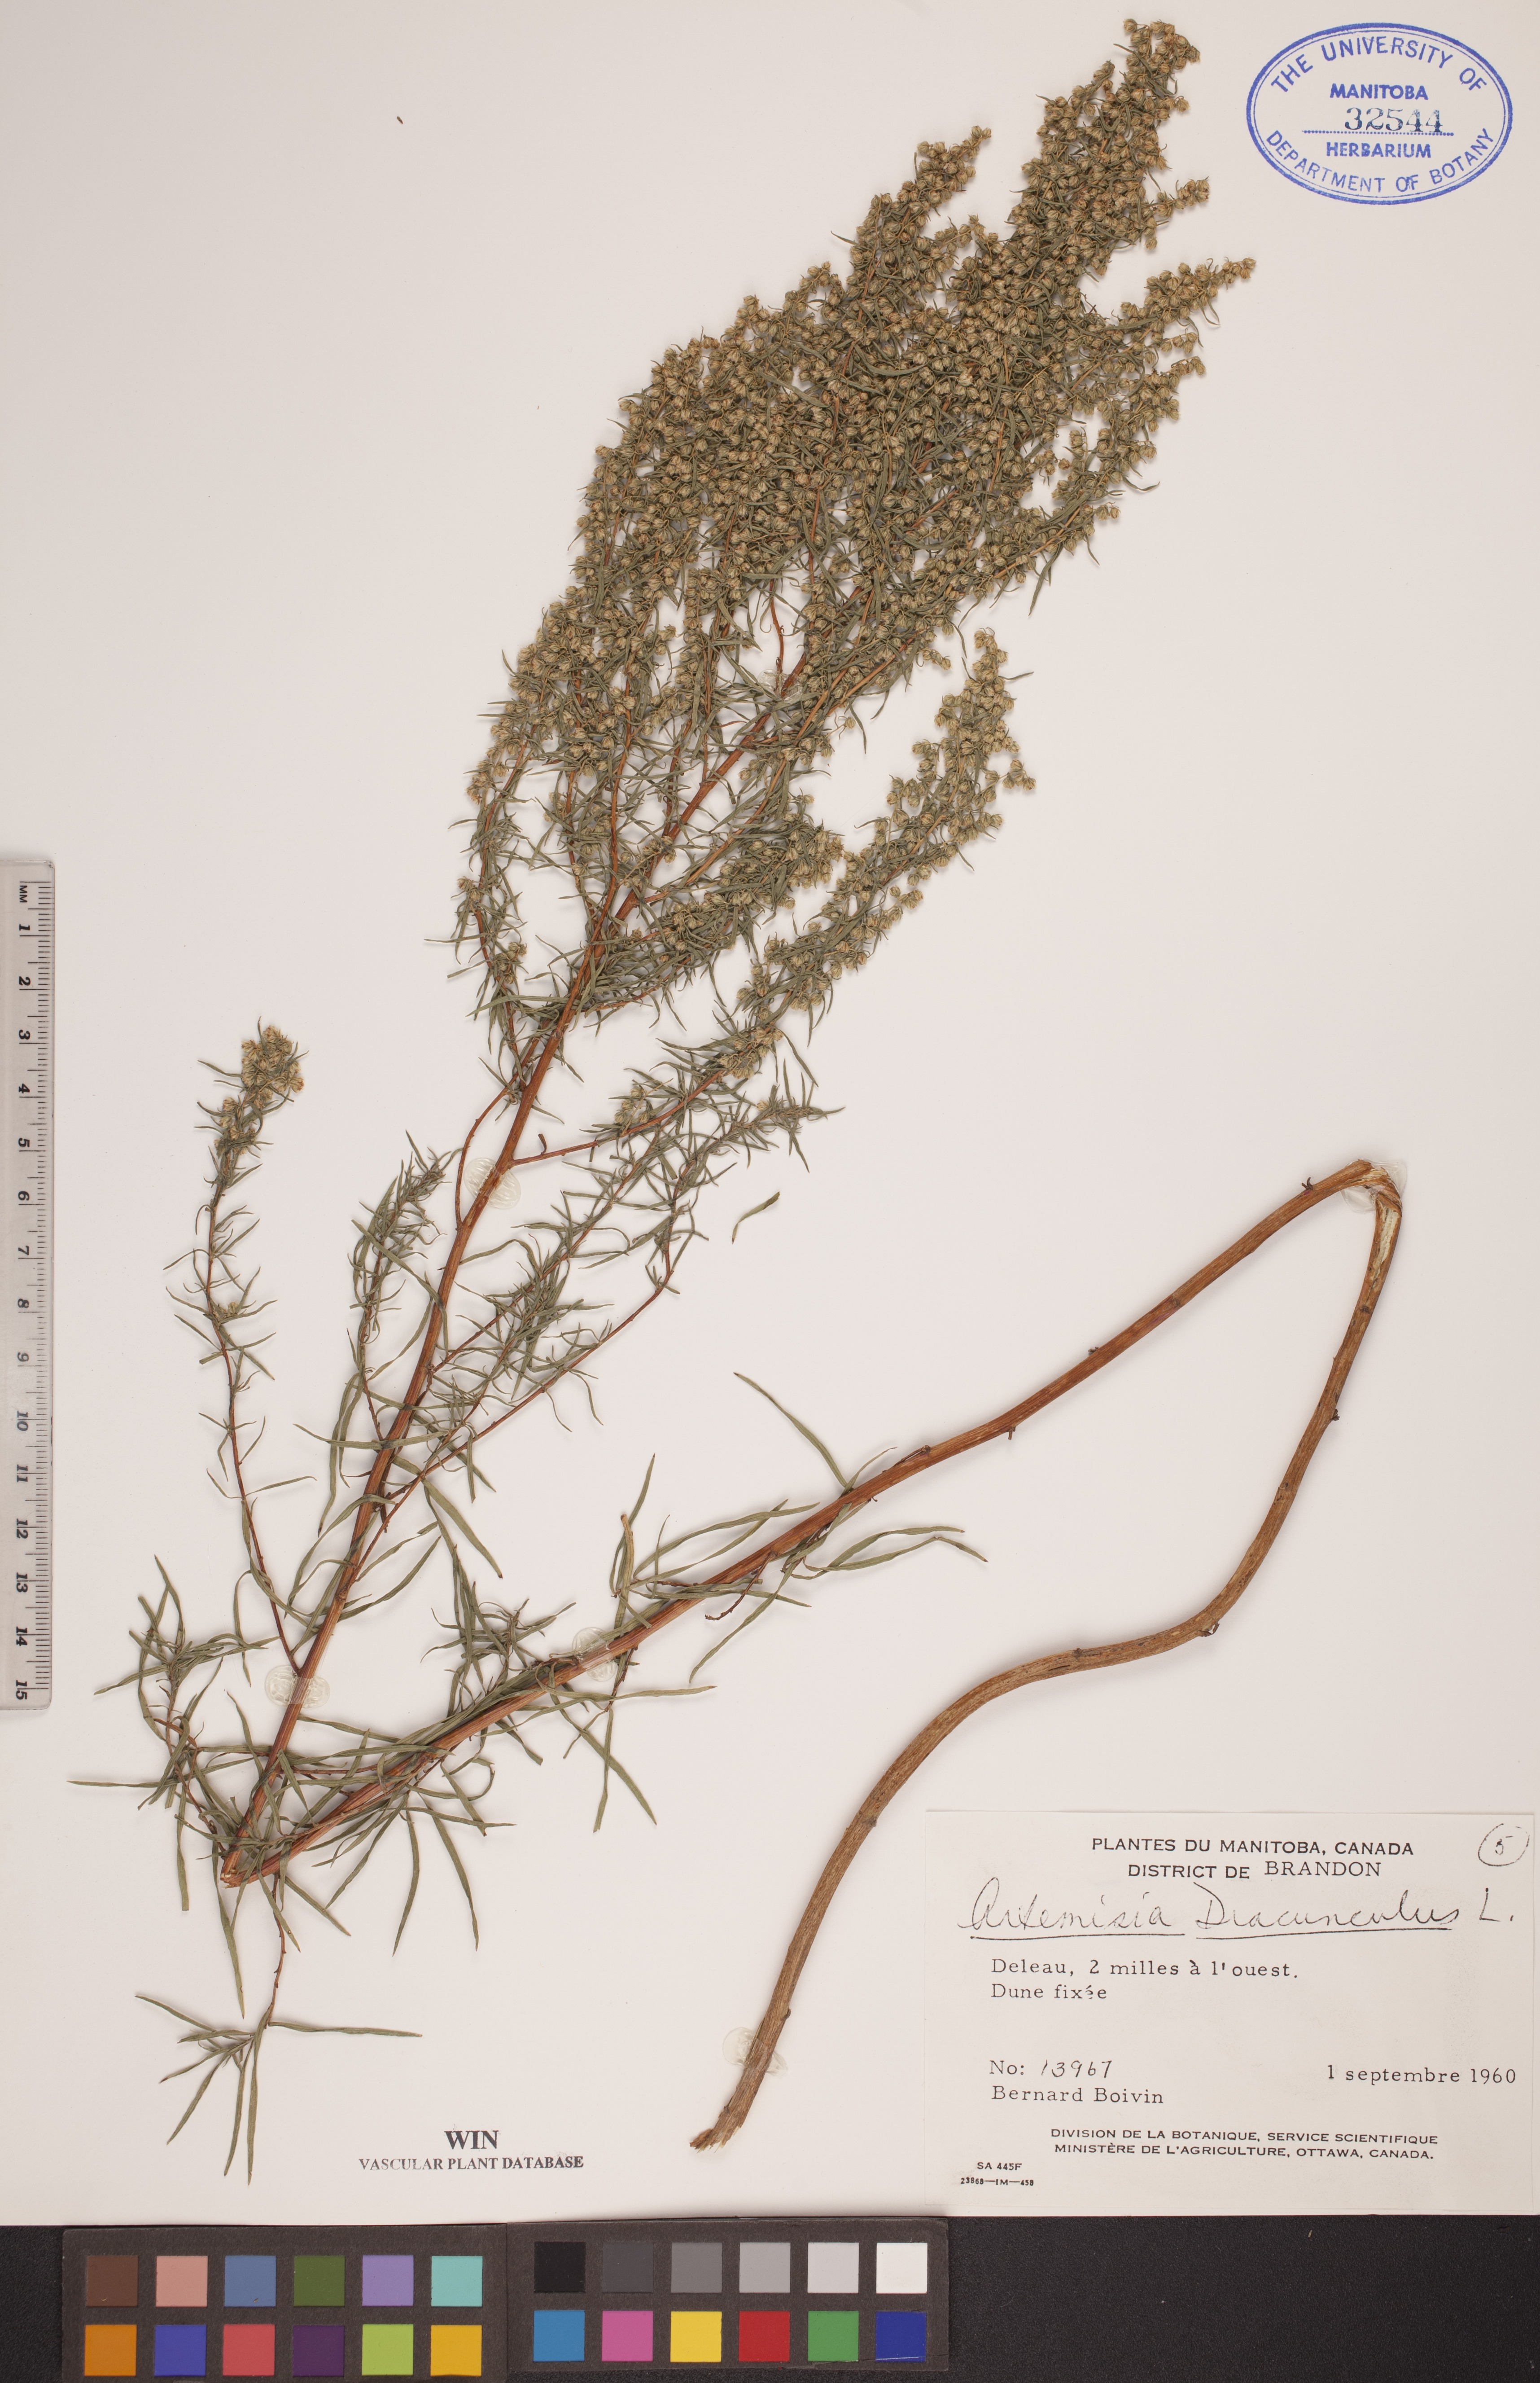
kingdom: Plantae
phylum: Tracheophyta
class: Magnoliopsida
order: Asterales
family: Asteraceae
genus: Artemisia
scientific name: Artemisia dracunculus
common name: Tarragon
